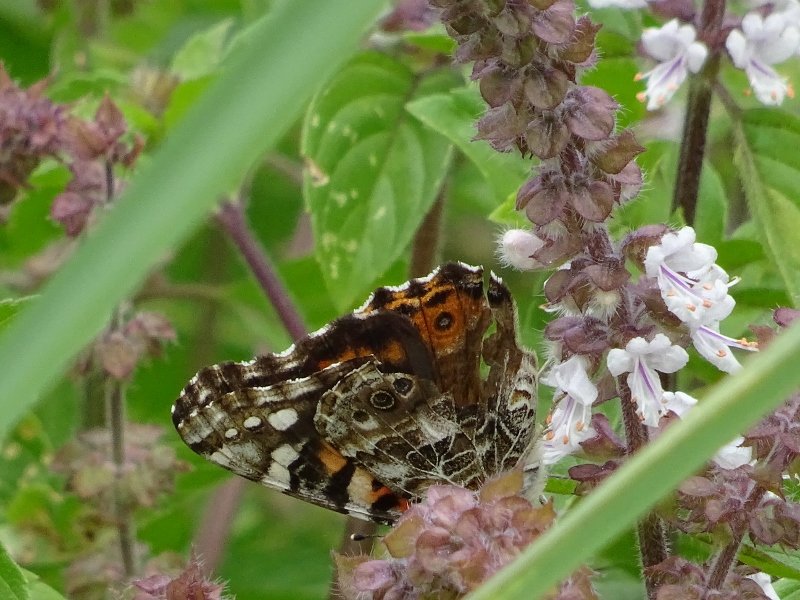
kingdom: Animalia
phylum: Arthropoda
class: Insecta
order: Lepidoptera
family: Nymphalidae
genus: Vanessa
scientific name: Vanessa cardui
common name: Painted Lady
